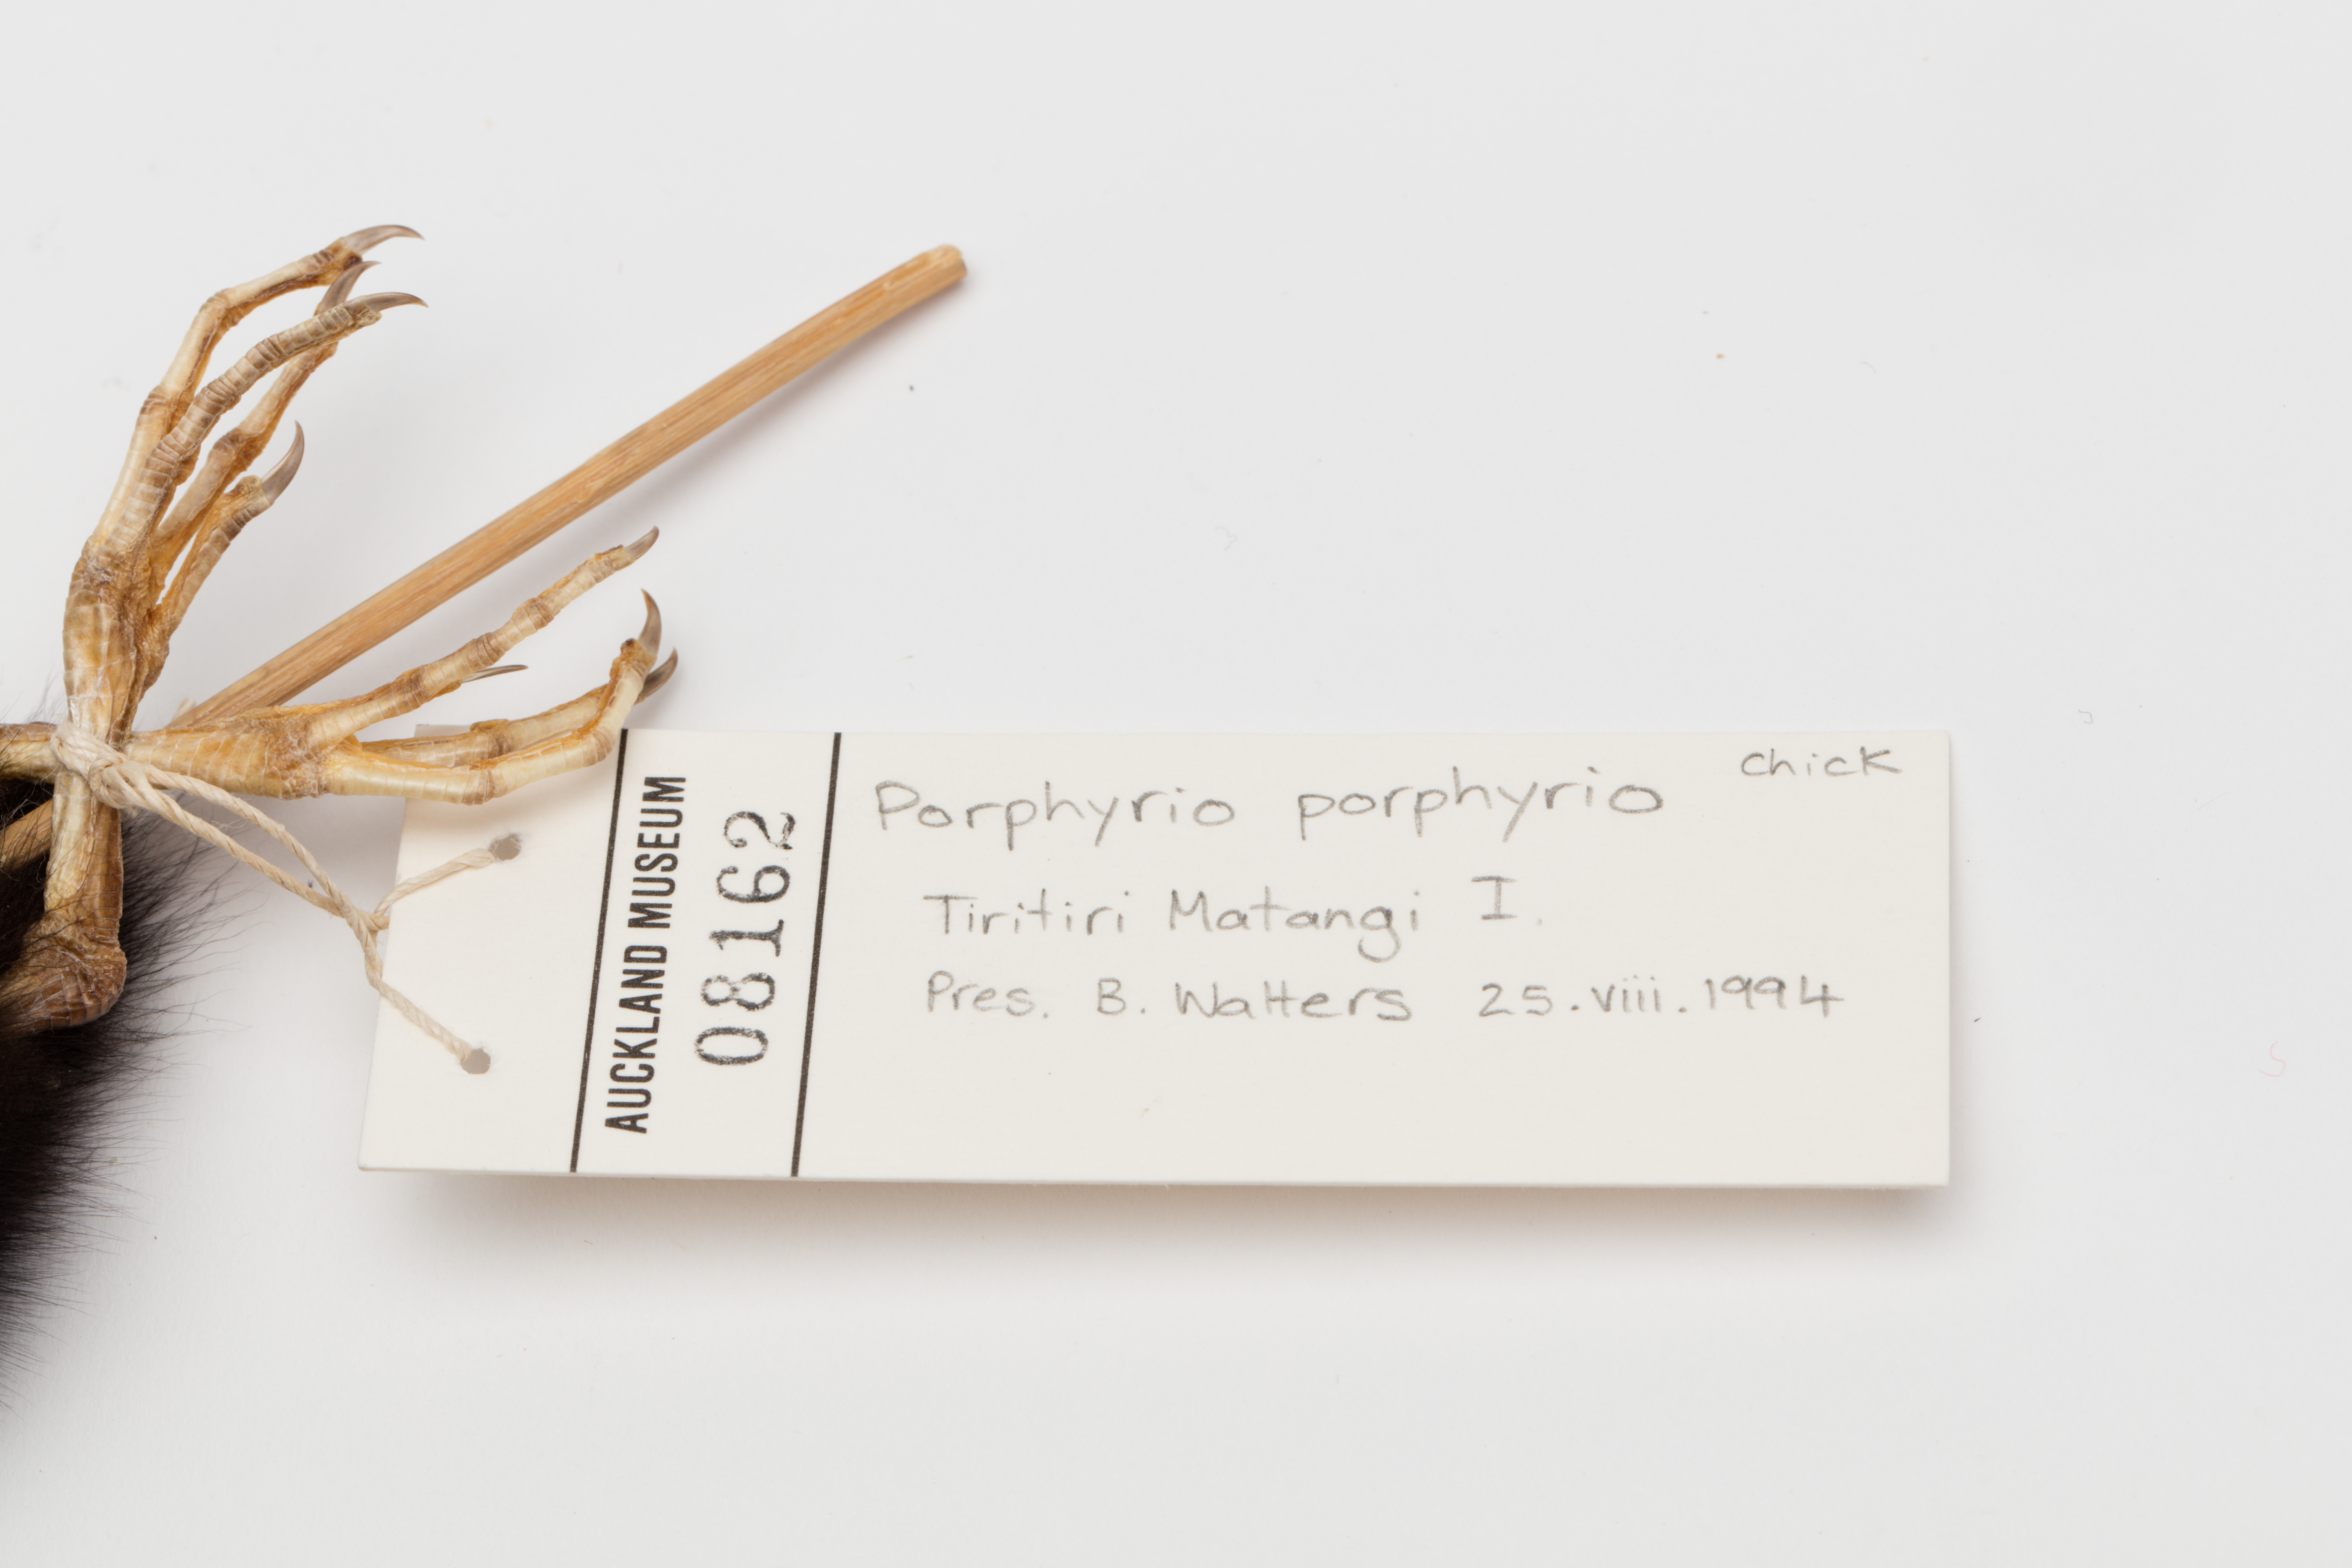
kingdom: Animalia
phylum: Chordata
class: Aves
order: Gruiformes
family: Rallidae
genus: Porphyrio
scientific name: Porphyrio melanotus
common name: Australasian swamphen
